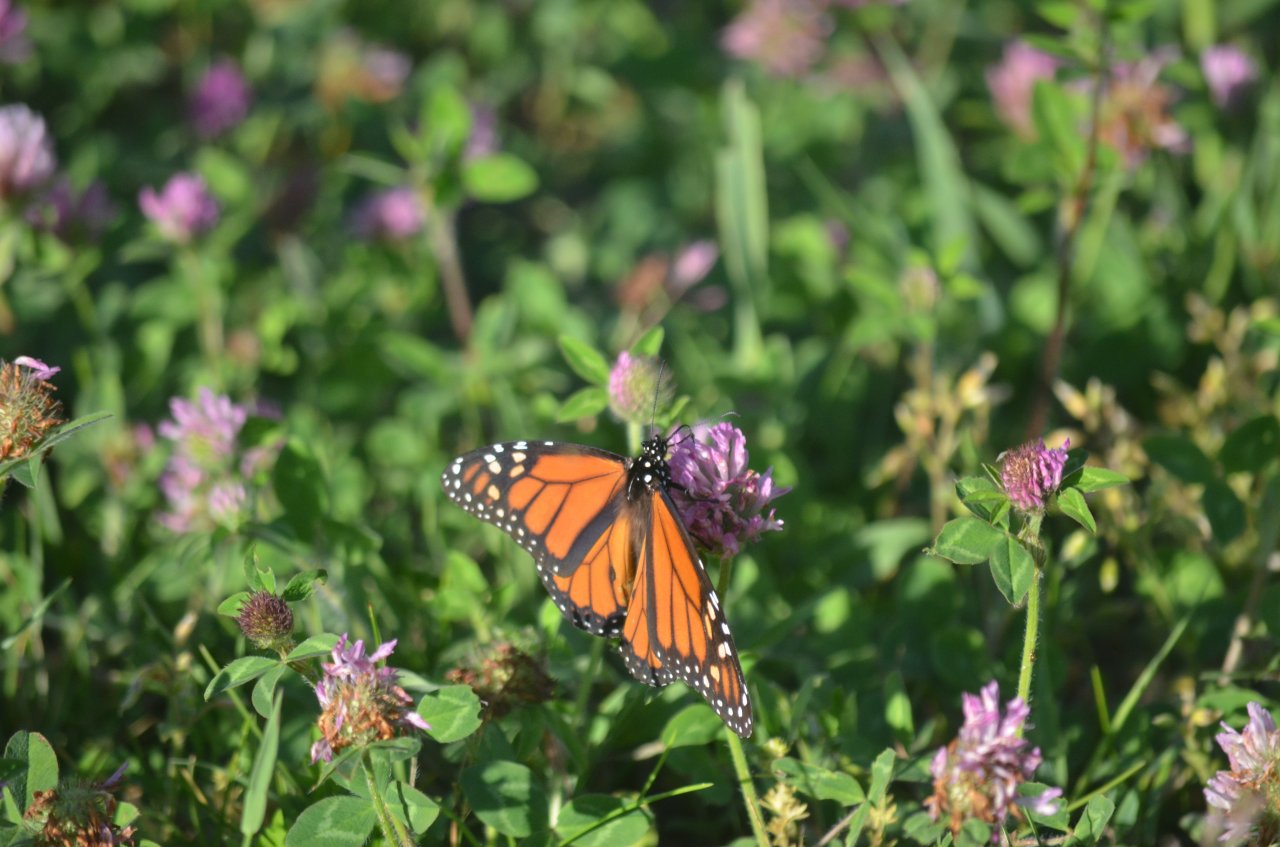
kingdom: Animalia
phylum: Arthropoda
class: Insecta
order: Lepidoptera
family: Nymphalidae
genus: Danaus
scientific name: Danaus plexippus
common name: Monarch
